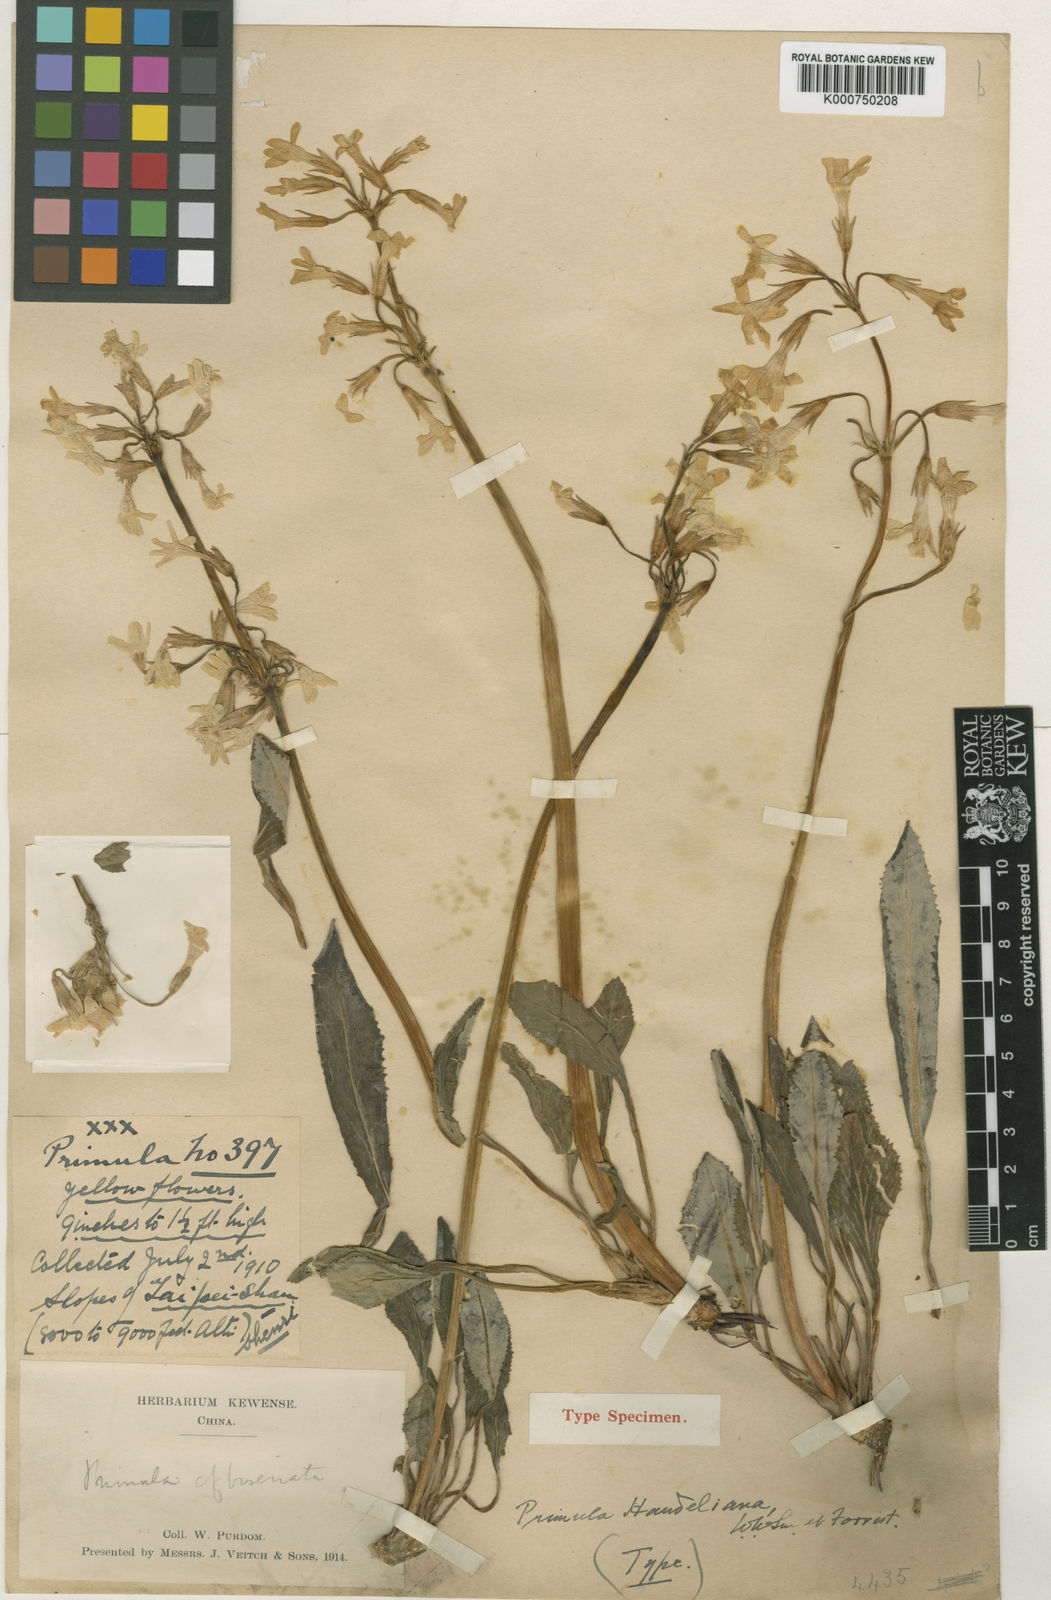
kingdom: Plantae
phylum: Tracheophyta
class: Magnoliopsida
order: Ericales
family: Primulaceae
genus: Primula
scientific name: Primula handeliana
